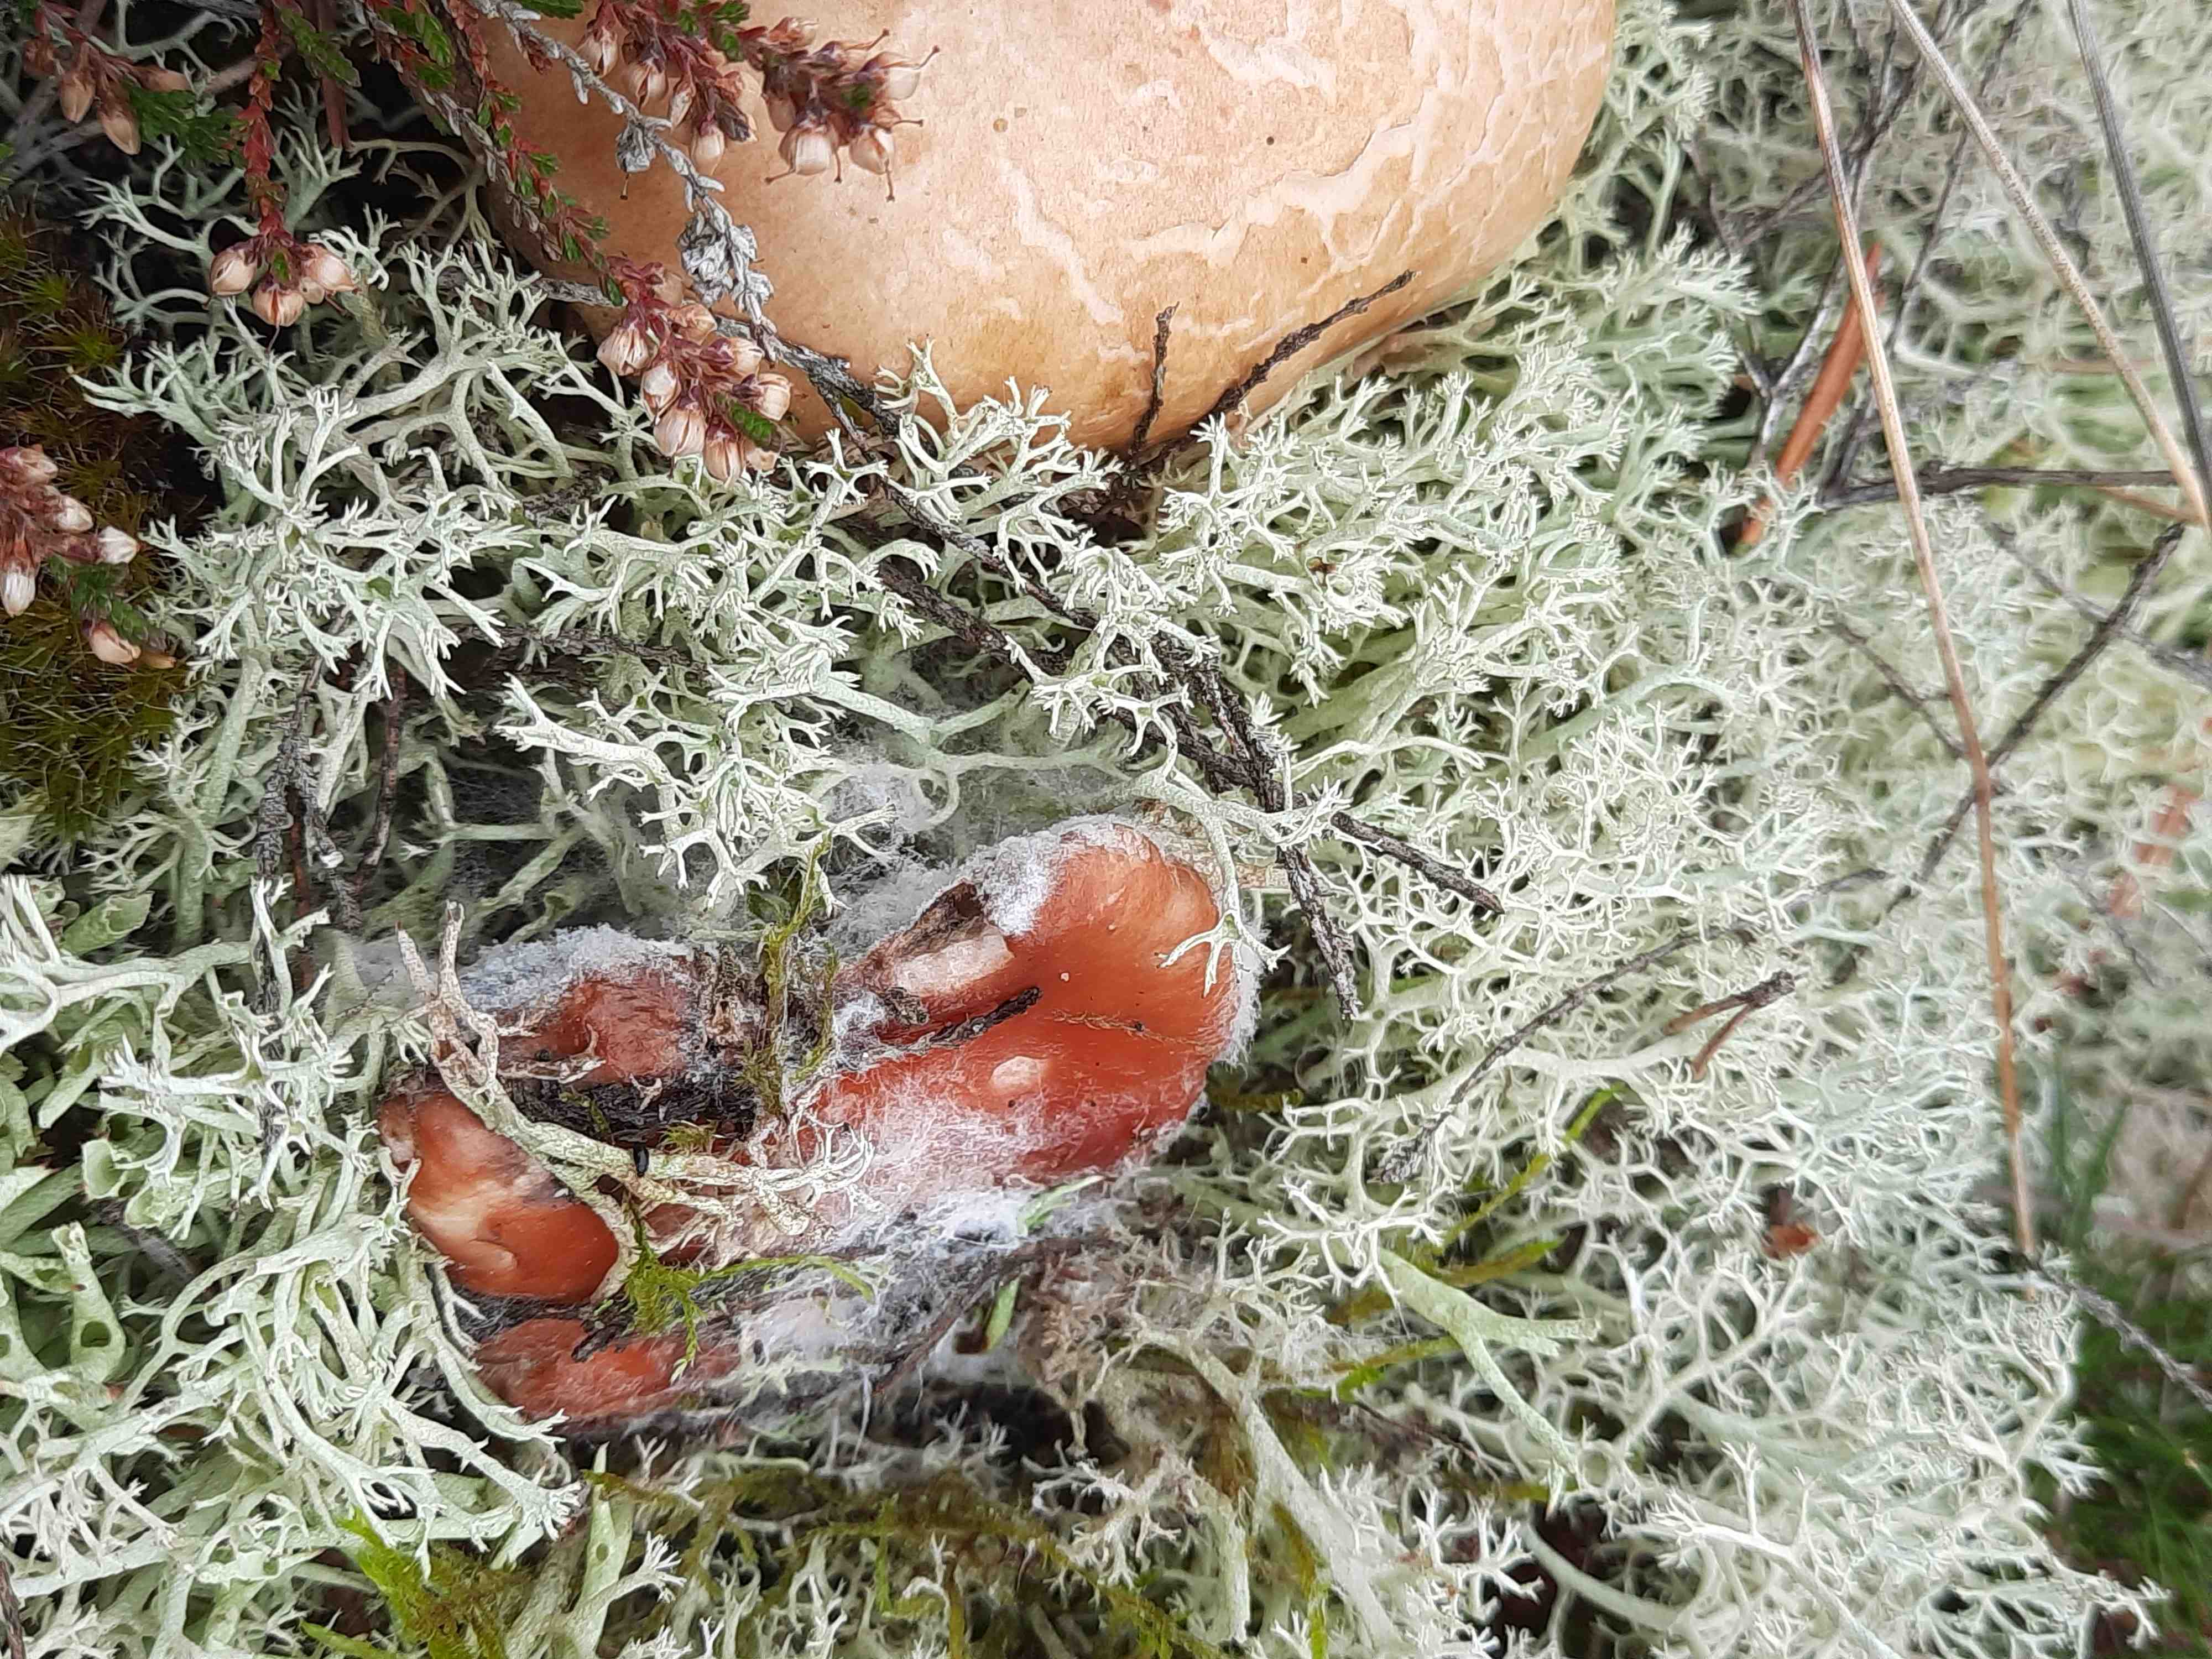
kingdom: Fungi
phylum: Basidiomycota
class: Agaricomycetes
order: Boletales
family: Gomphidiaceae
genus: Gomphidius
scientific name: Gomphidius roseus
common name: rosenrød slimslør
